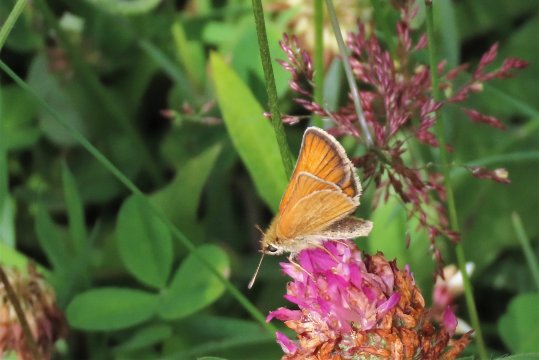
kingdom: Animalia
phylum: Arthropoda
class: Insecta
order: Lepidoptera
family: Hesperiidae
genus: Thymelicus
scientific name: Thymelicus lineola
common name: European Skipper
